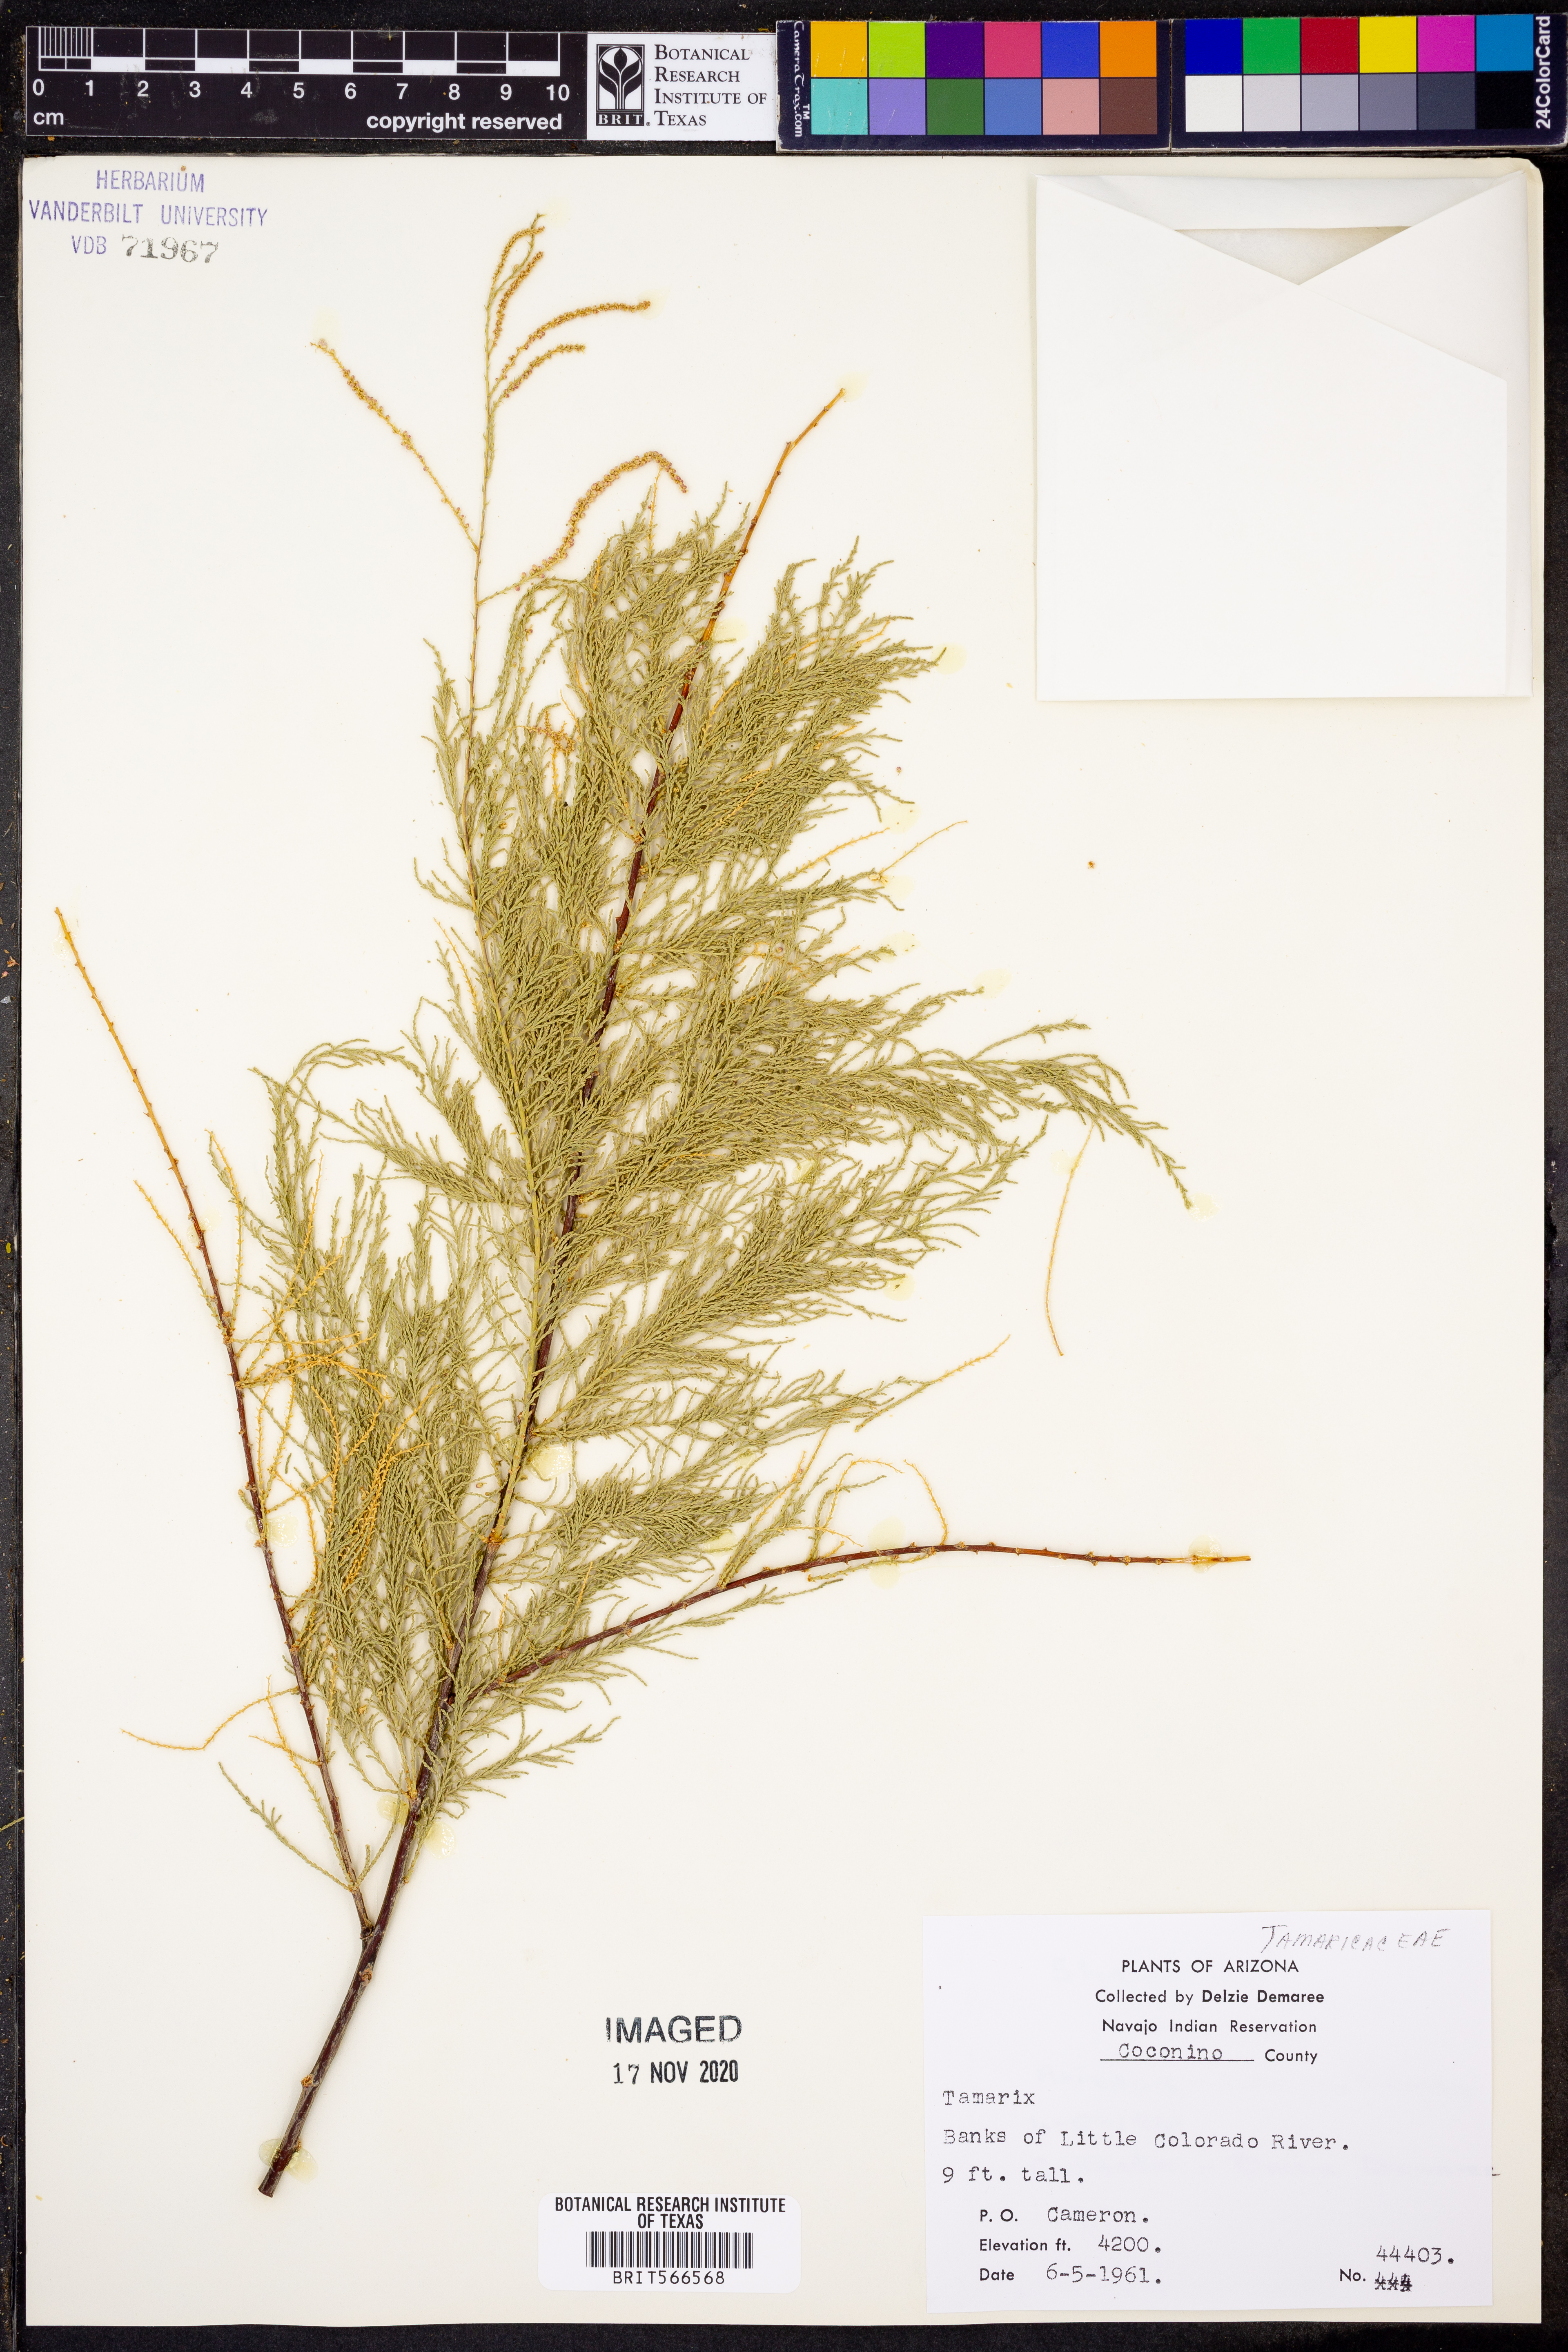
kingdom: Plantae
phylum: Tracheophyta
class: Magnoliopsida
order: Caryophyllales
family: Tamaricaceae
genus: Tamarix
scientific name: Tamarix
